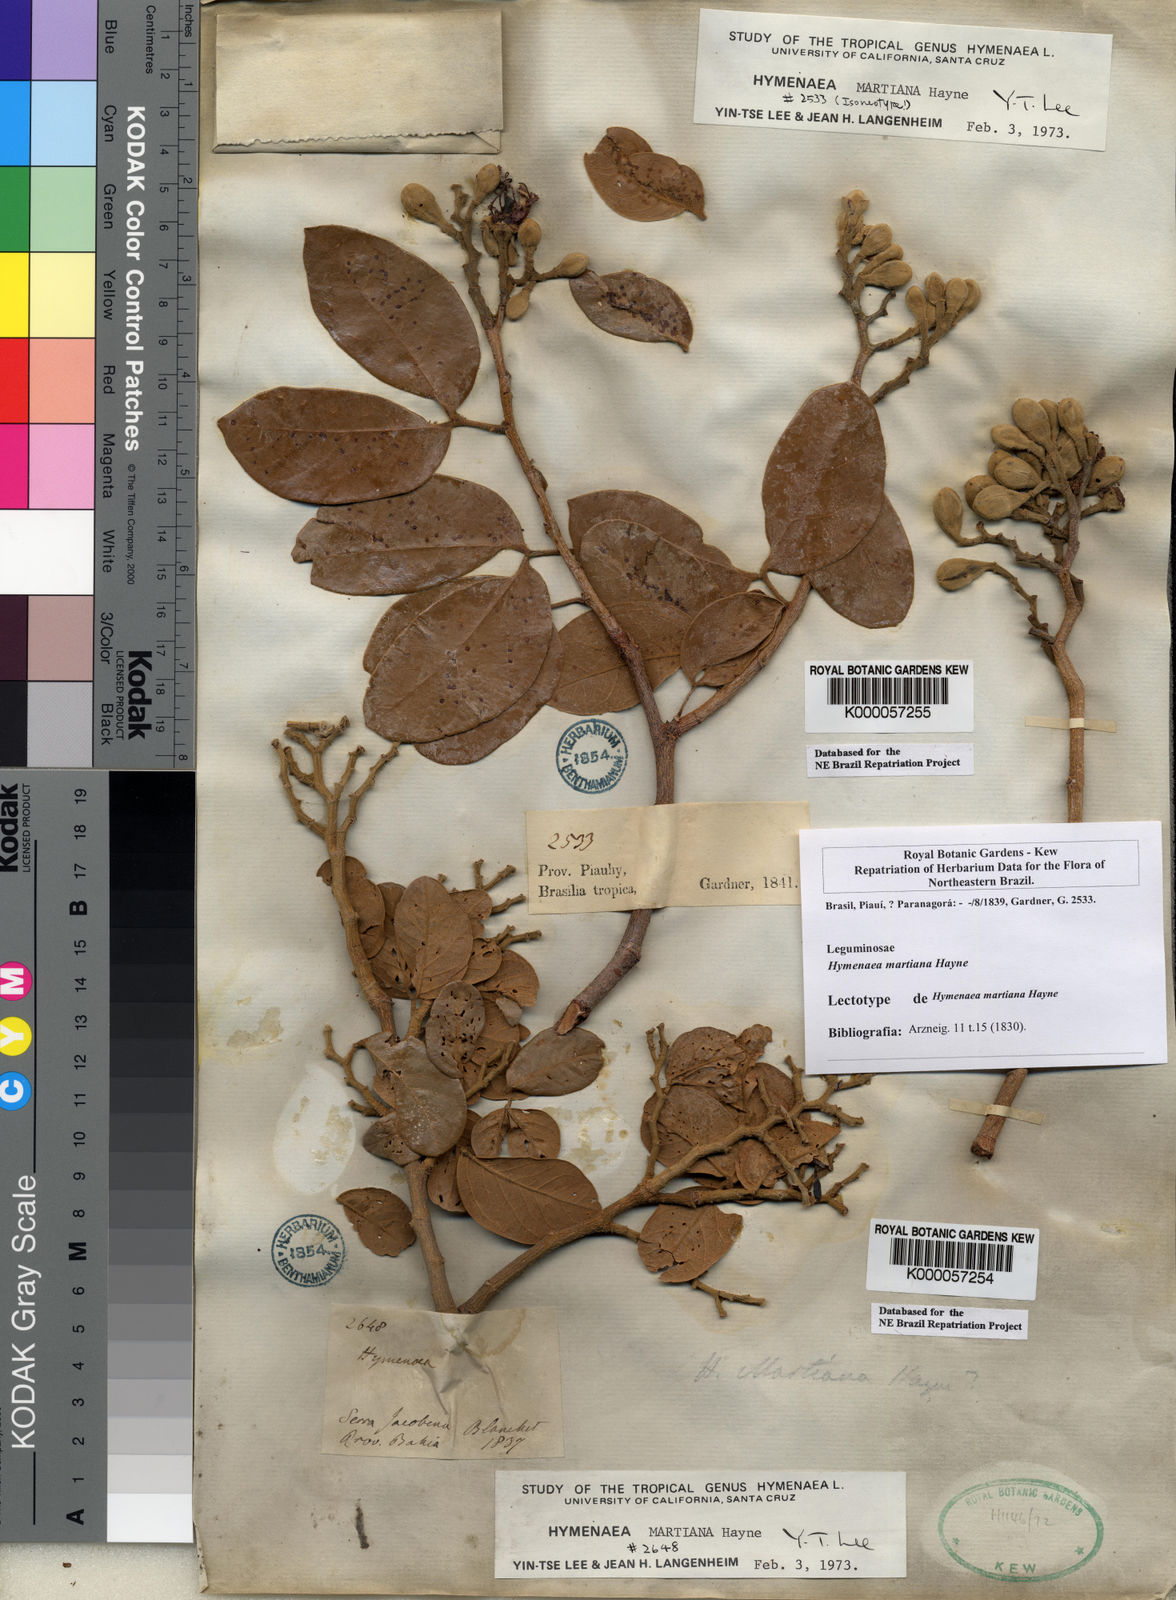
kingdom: Plantae
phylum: Tracheophyta
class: Magnoliopsida
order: Fabales
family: Fabaceae
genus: Hymenaea
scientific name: Hymenaea martiana
